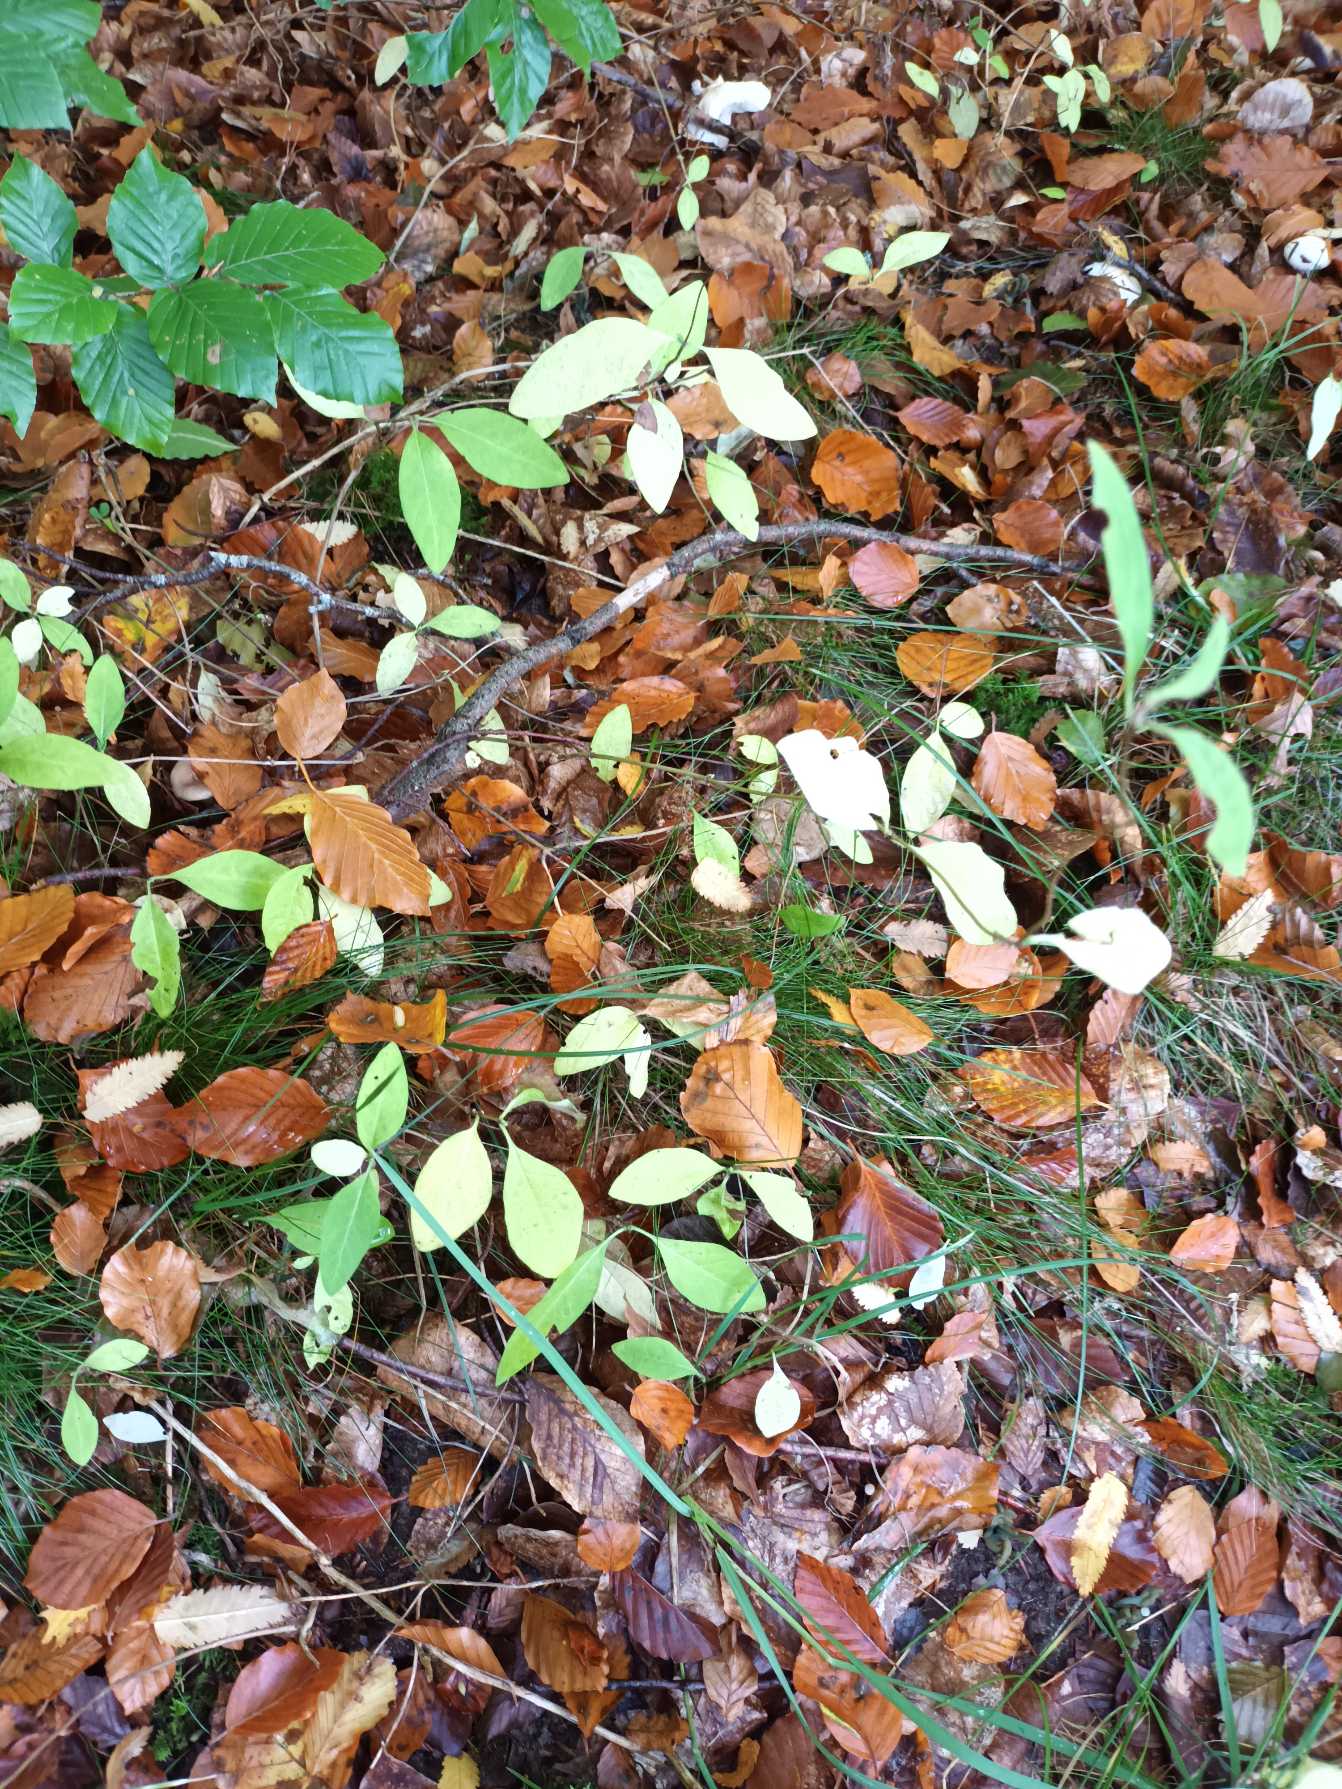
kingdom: Plantae
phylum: Tracheophyta
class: Magnoliopsida
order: Dipsacales
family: Caprifoliaceae
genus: Lonicera
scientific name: Lonicera periclymenum
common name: Almindelig gedeblad
